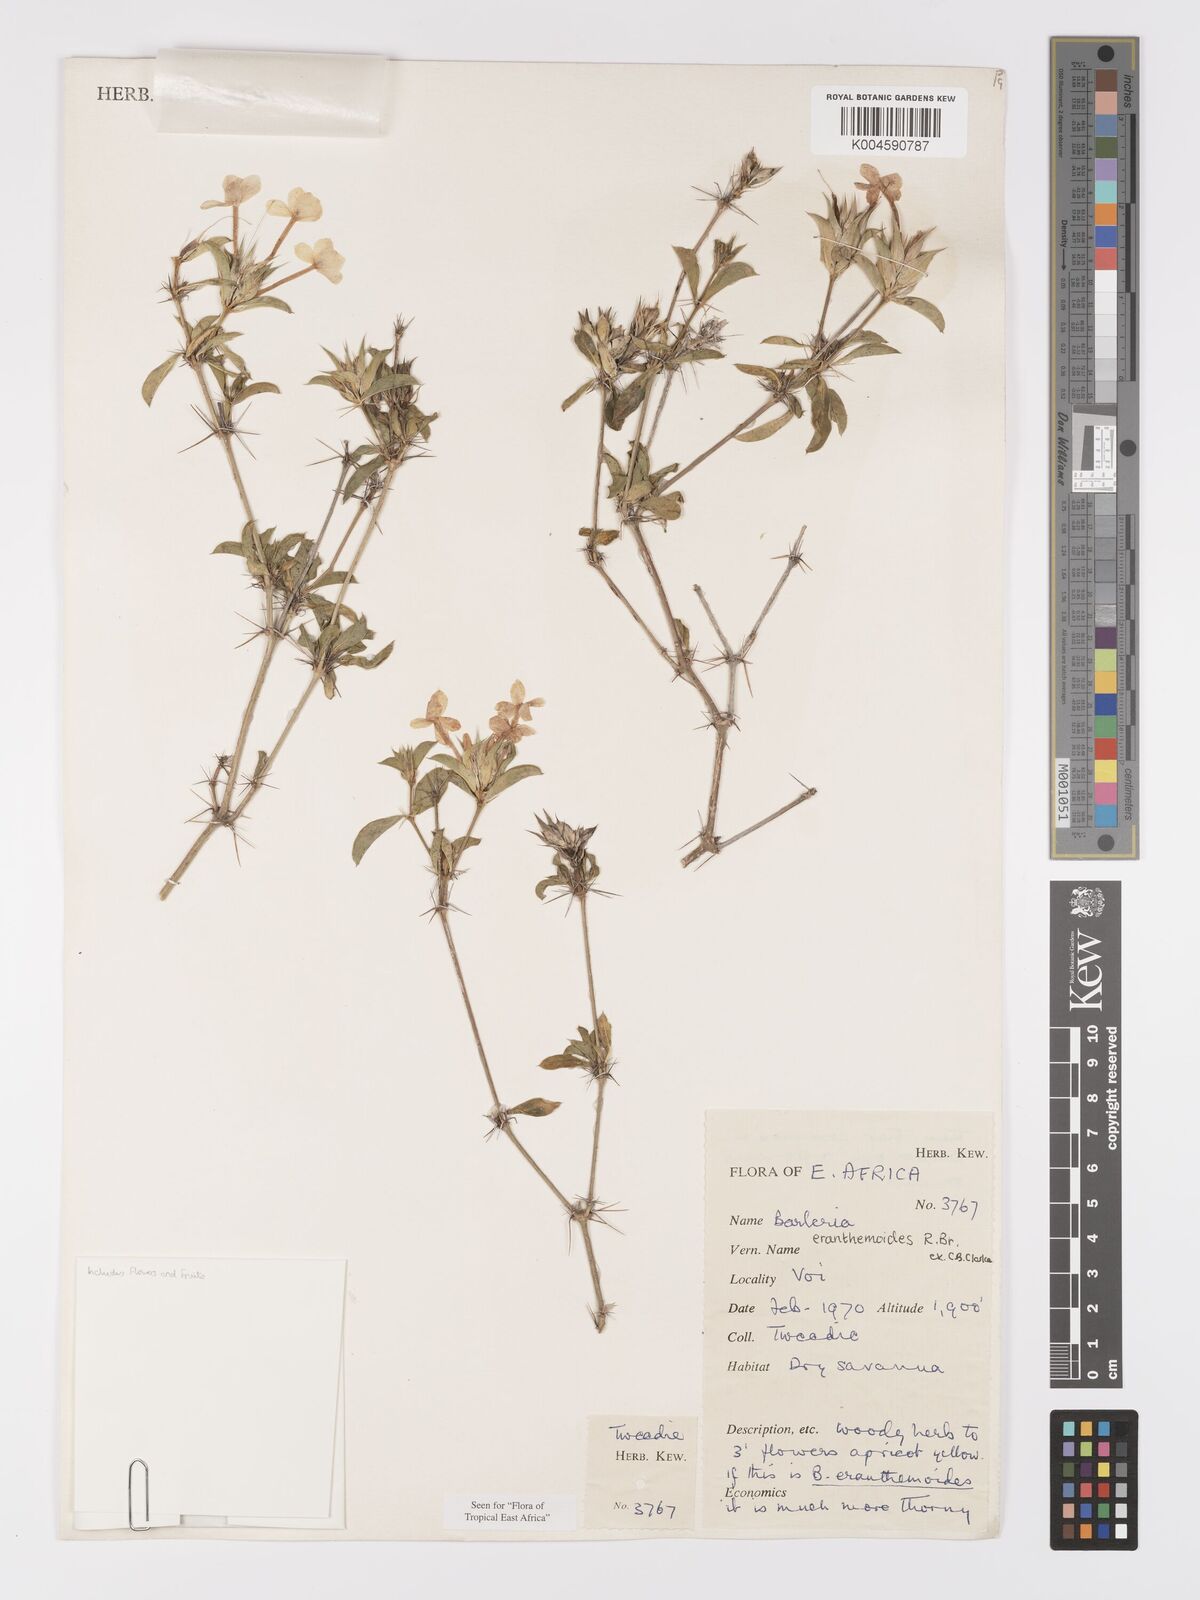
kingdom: Plantae
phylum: Tracheophyta
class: Magnoliopsida
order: Lamiales
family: Acanthaceae
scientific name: Acanthaceae
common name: Acanthaceae
